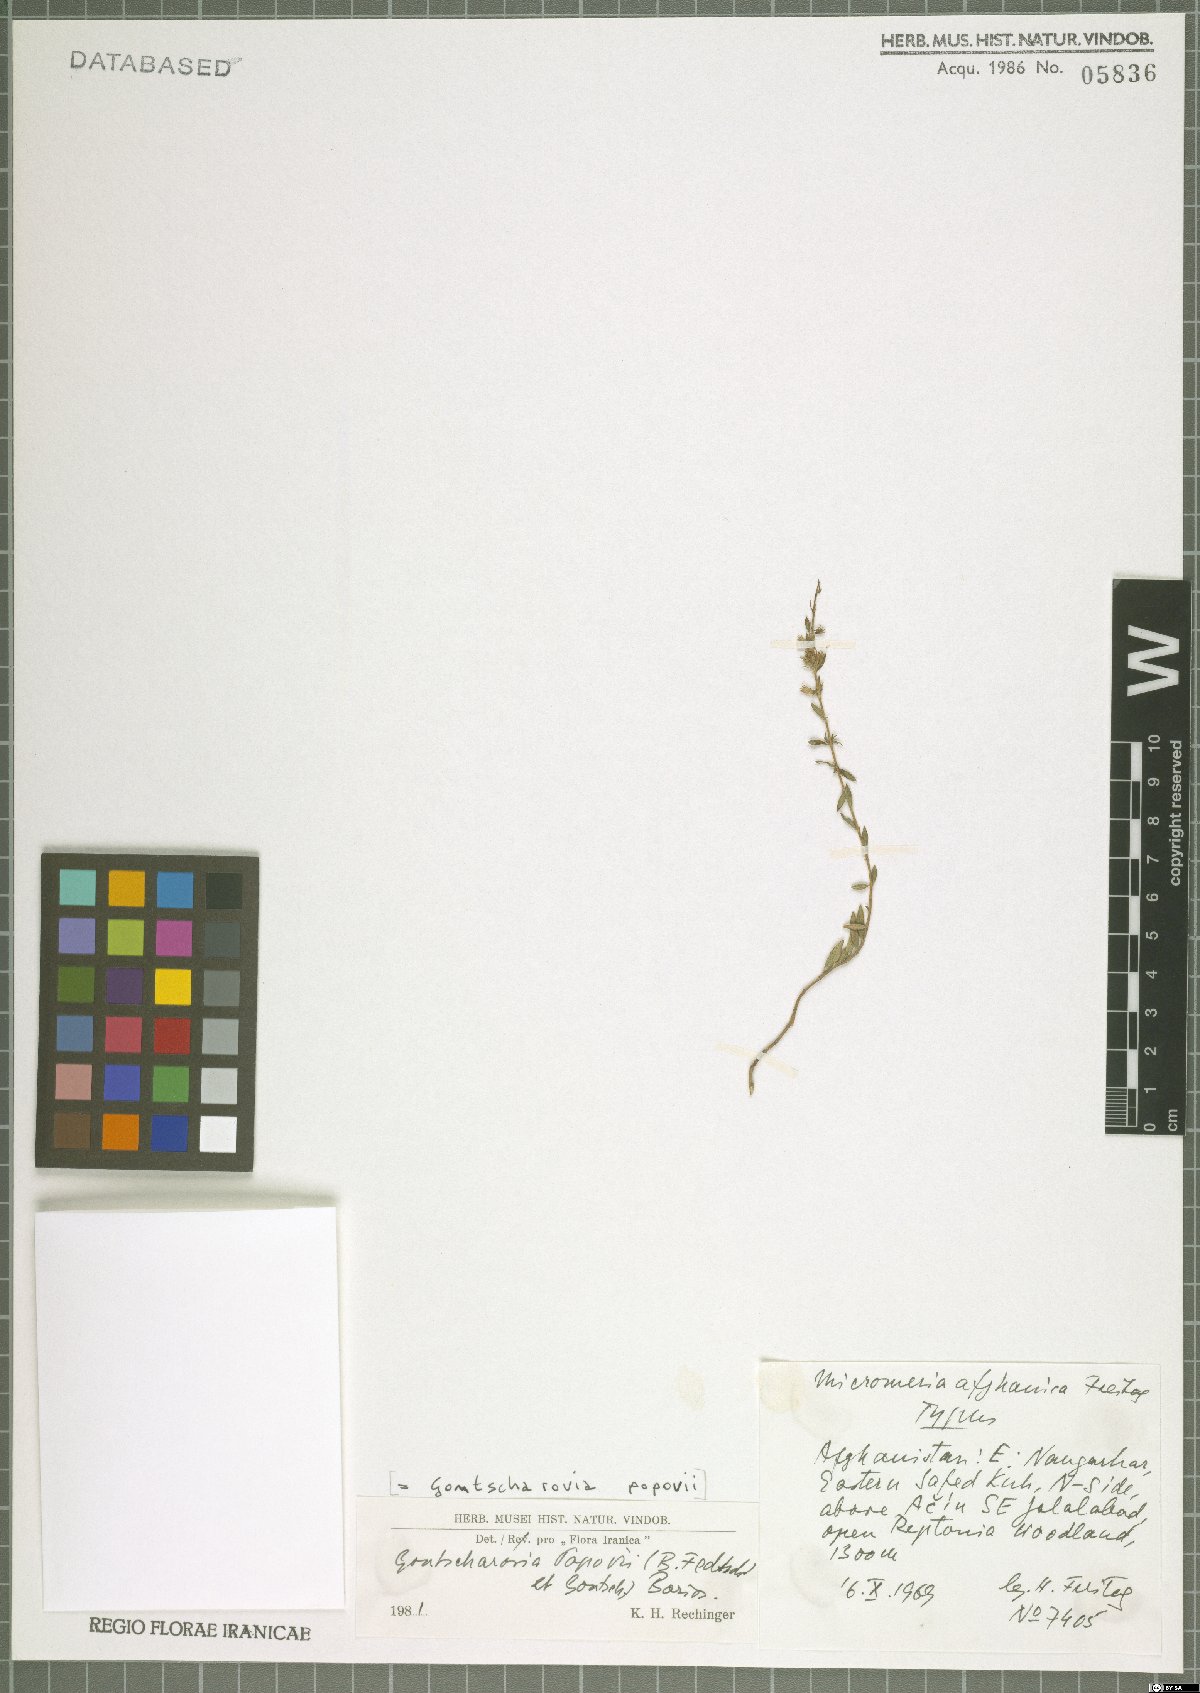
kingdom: Plantae
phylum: Tracheophyta
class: Magnoliopsida
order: Lamiales
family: Lamiaceae
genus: Gontscharovia
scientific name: Gontscharovia popovii
